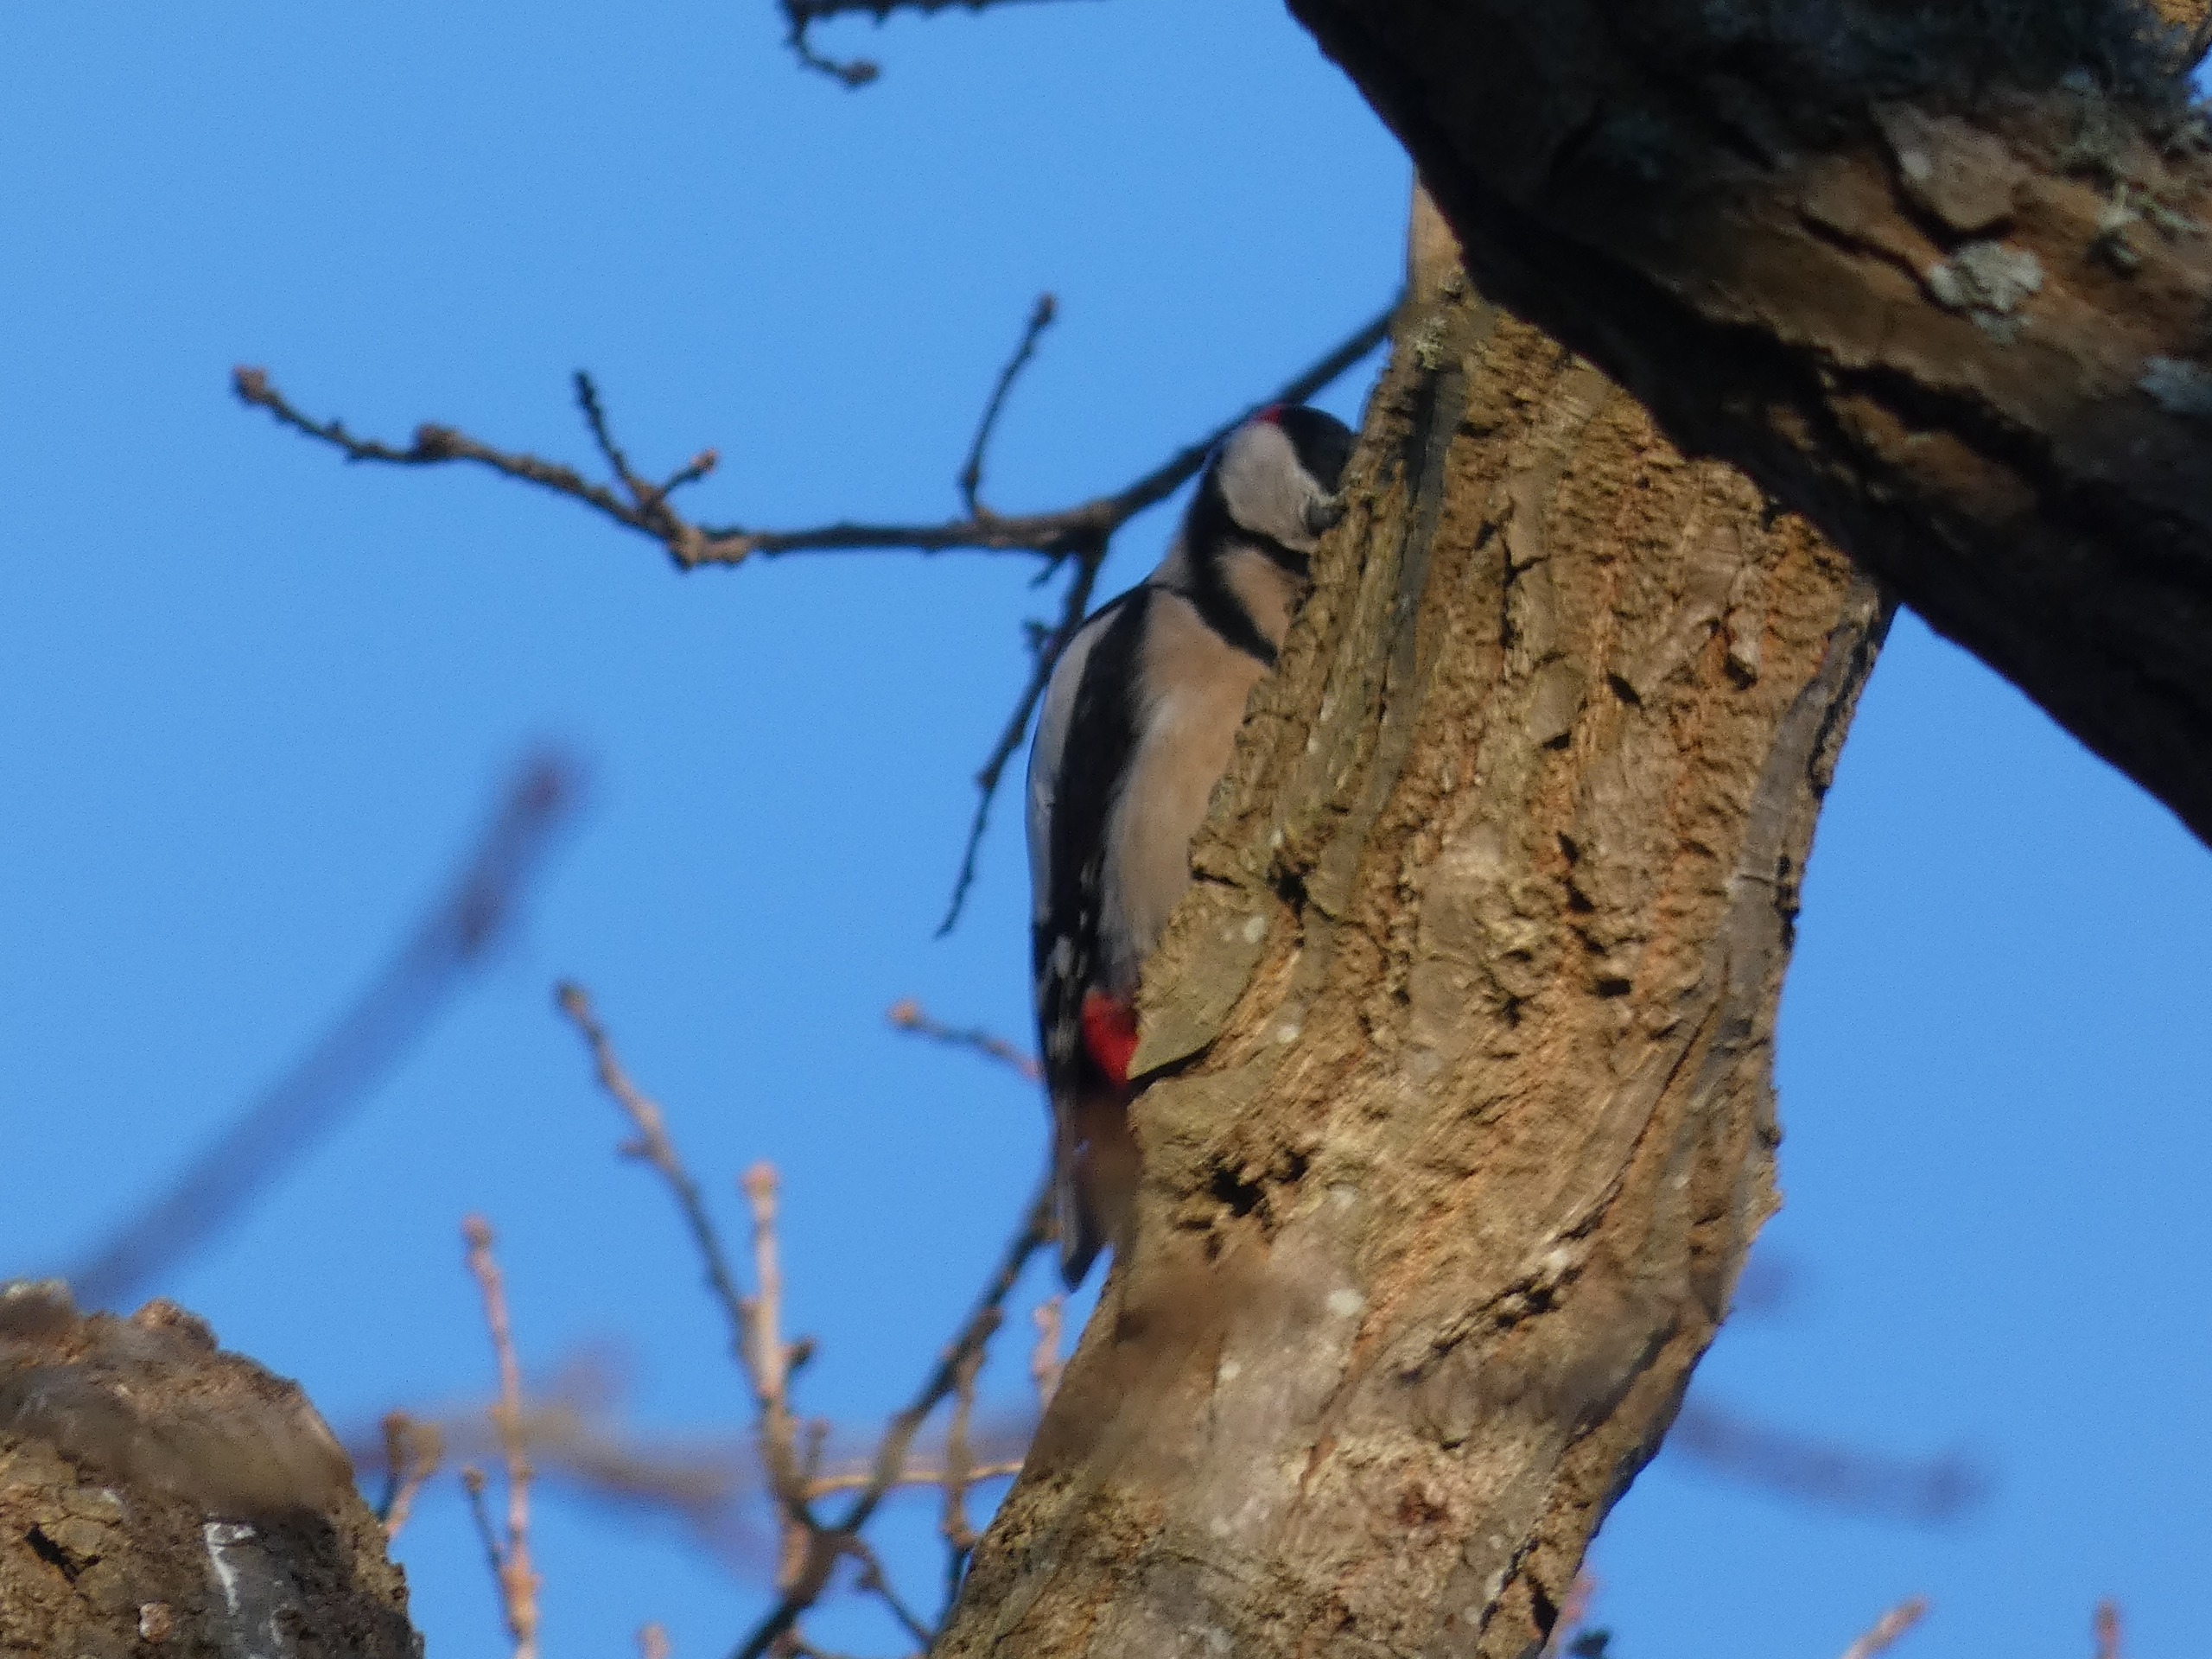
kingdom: Animalia
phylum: Chordata
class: Aves
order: Piciformes
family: Picidae
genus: Dendrocopos
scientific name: Dendrocopos major
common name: Stor flagspætte
